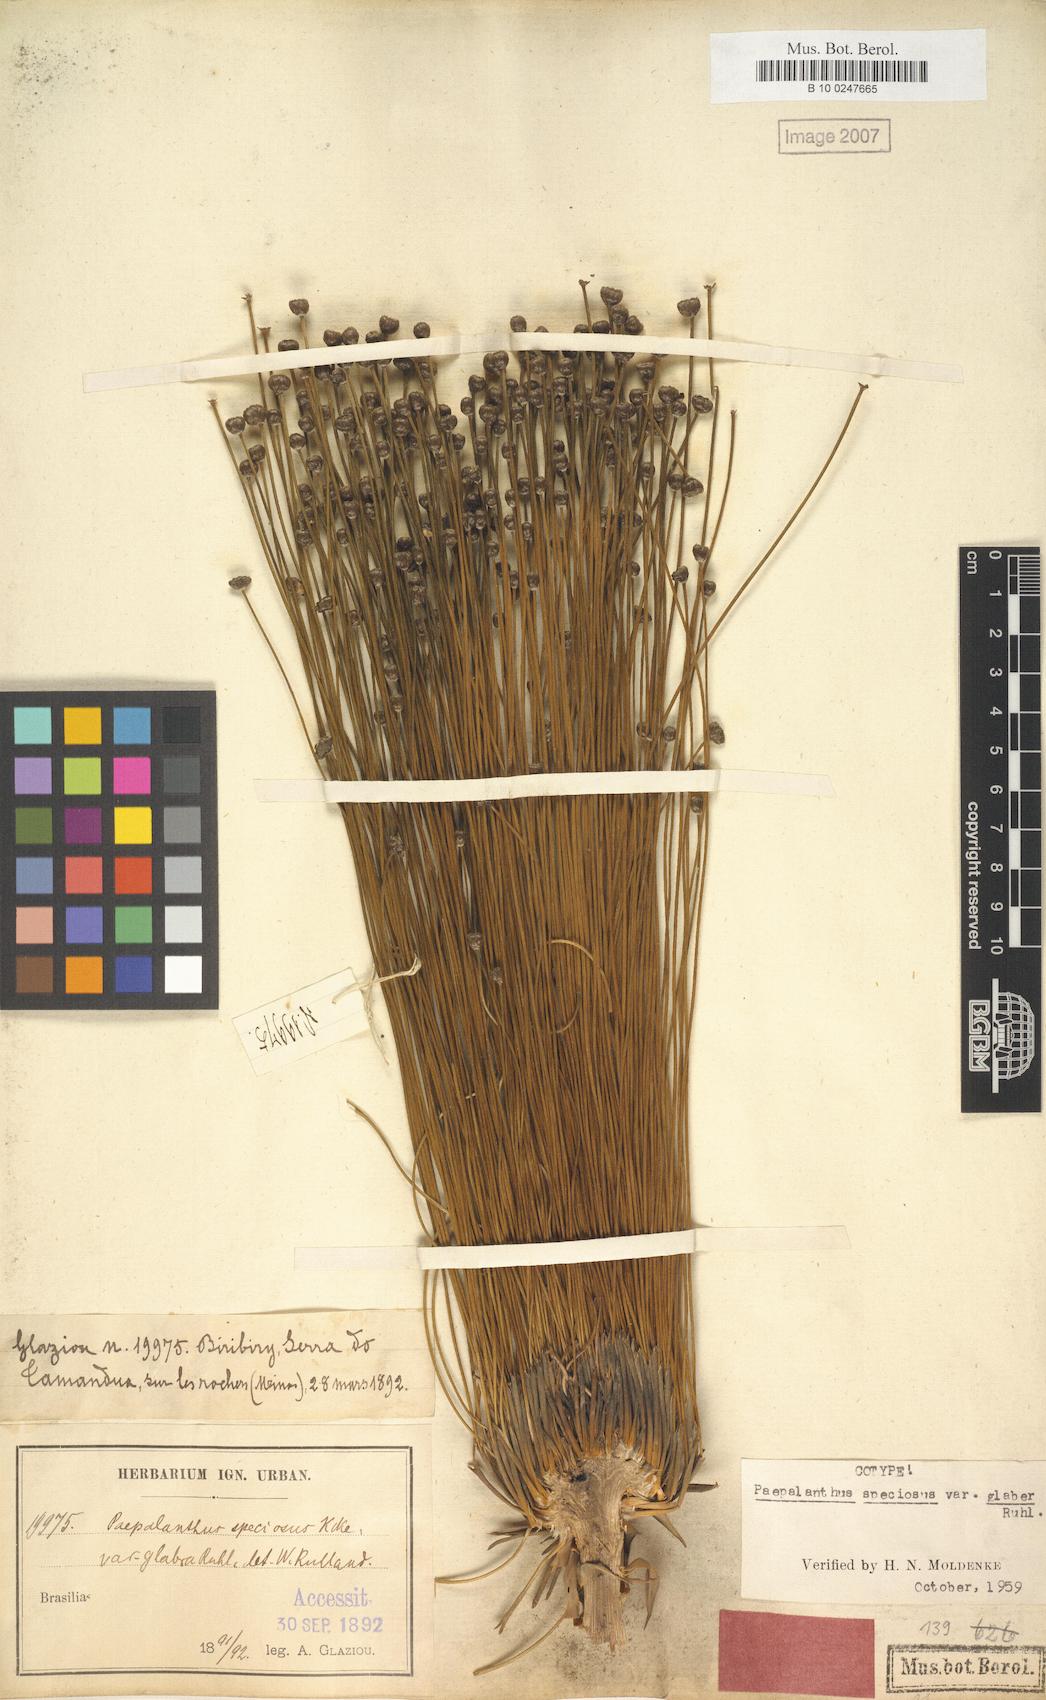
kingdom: Plantae
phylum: Tracheophyta
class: Liliopsida
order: Poales
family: Eriocaulaceae
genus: Paepalanthus
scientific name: Paepalanthus chiquitensis
